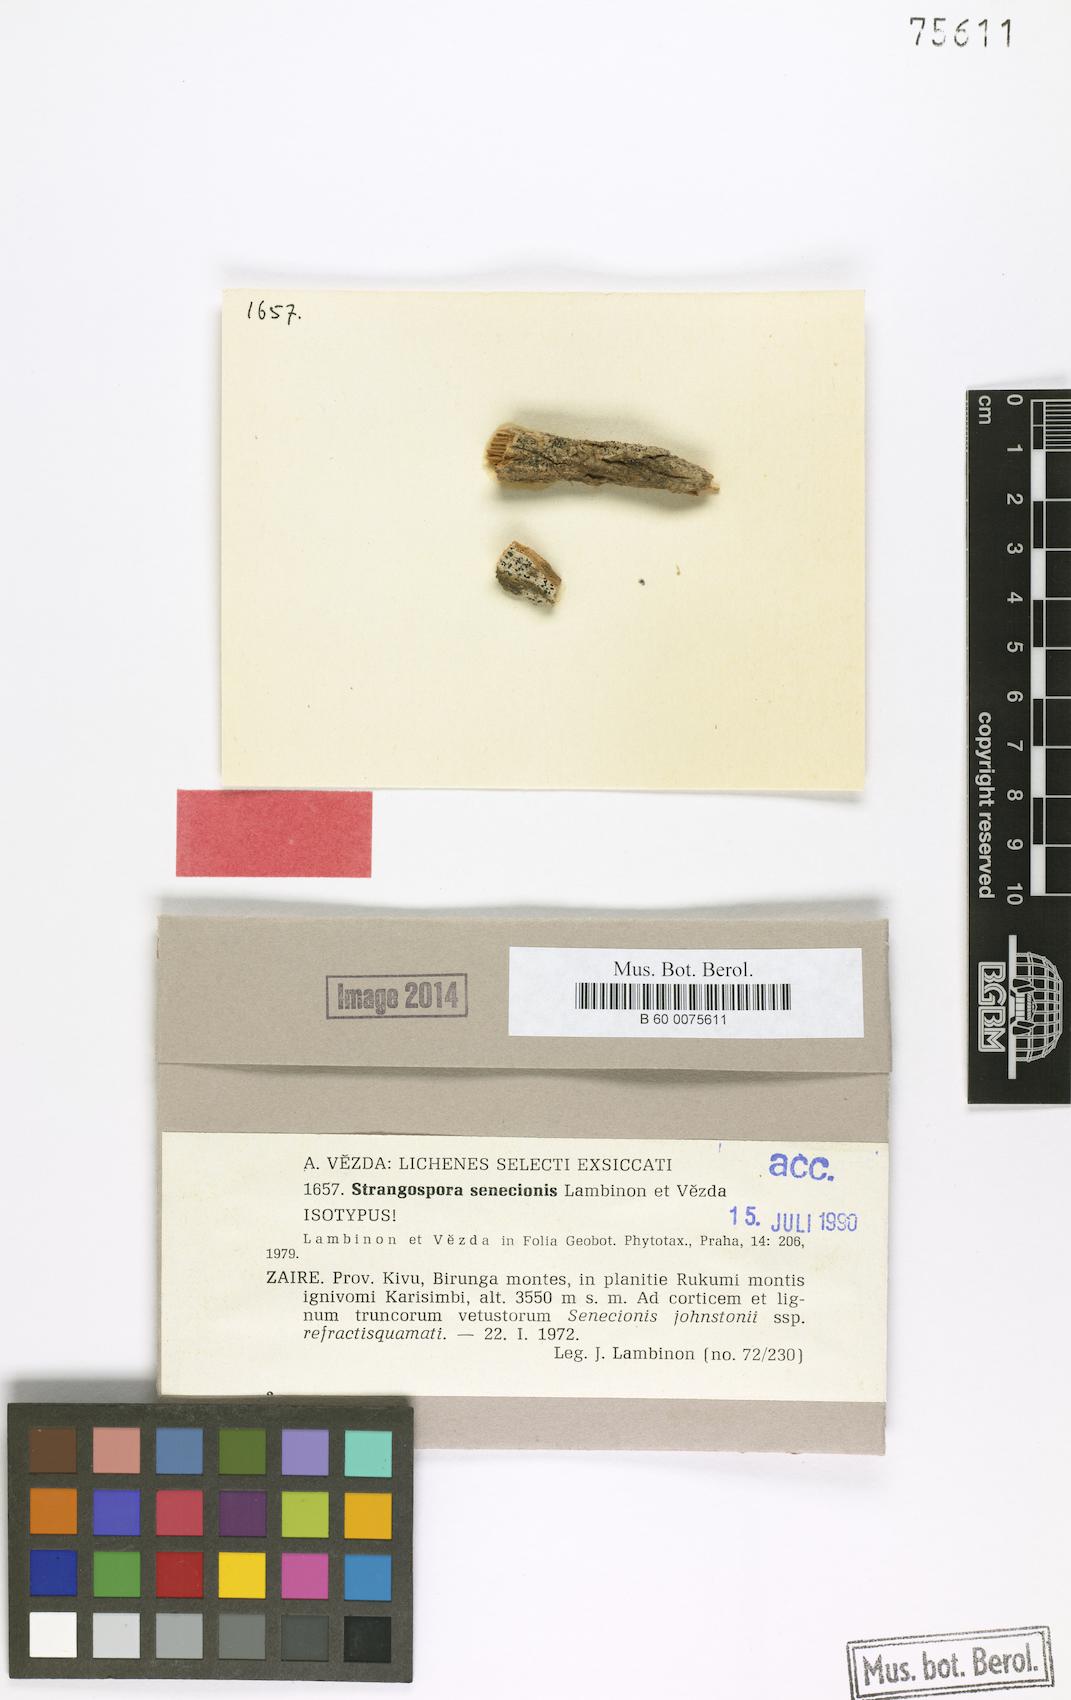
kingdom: Fungi
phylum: Ascomycota
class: Lecanoromycetes
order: Lecanorales
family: Strangosporaceae
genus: Strangospora
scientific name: Strangospora senecionis
